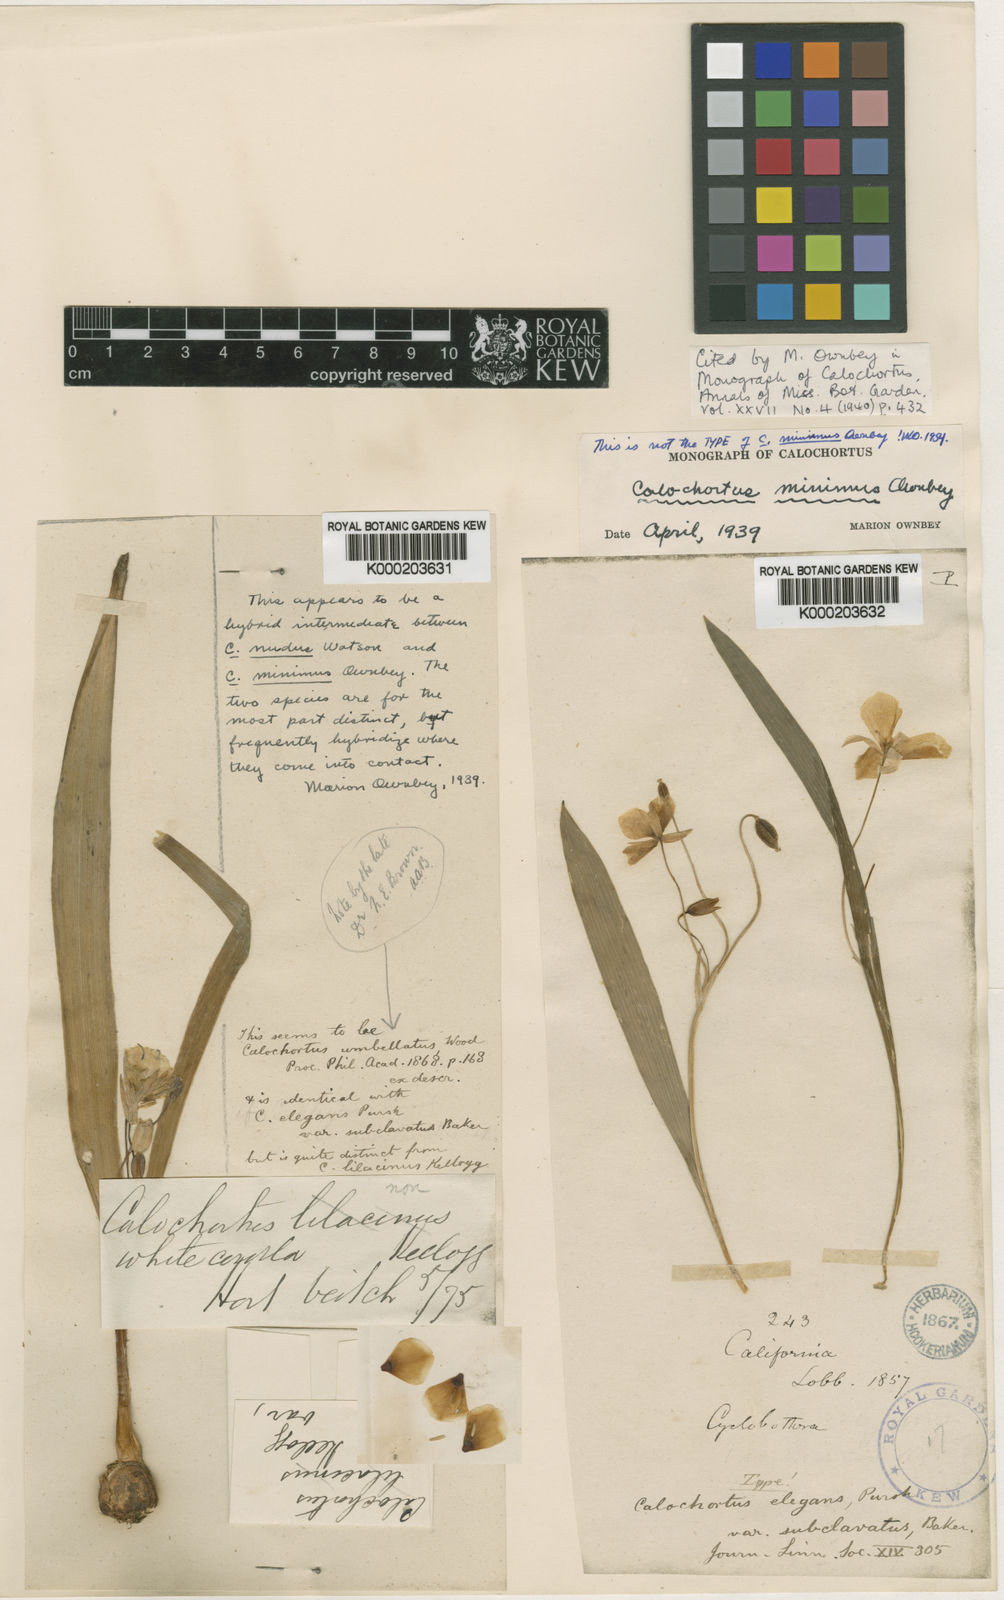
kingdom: Plantae
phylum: Tracheophyta
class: Liliopsida
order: Liliales
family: Liliaceae
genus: Calochortus
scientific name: Calochortus minimus
